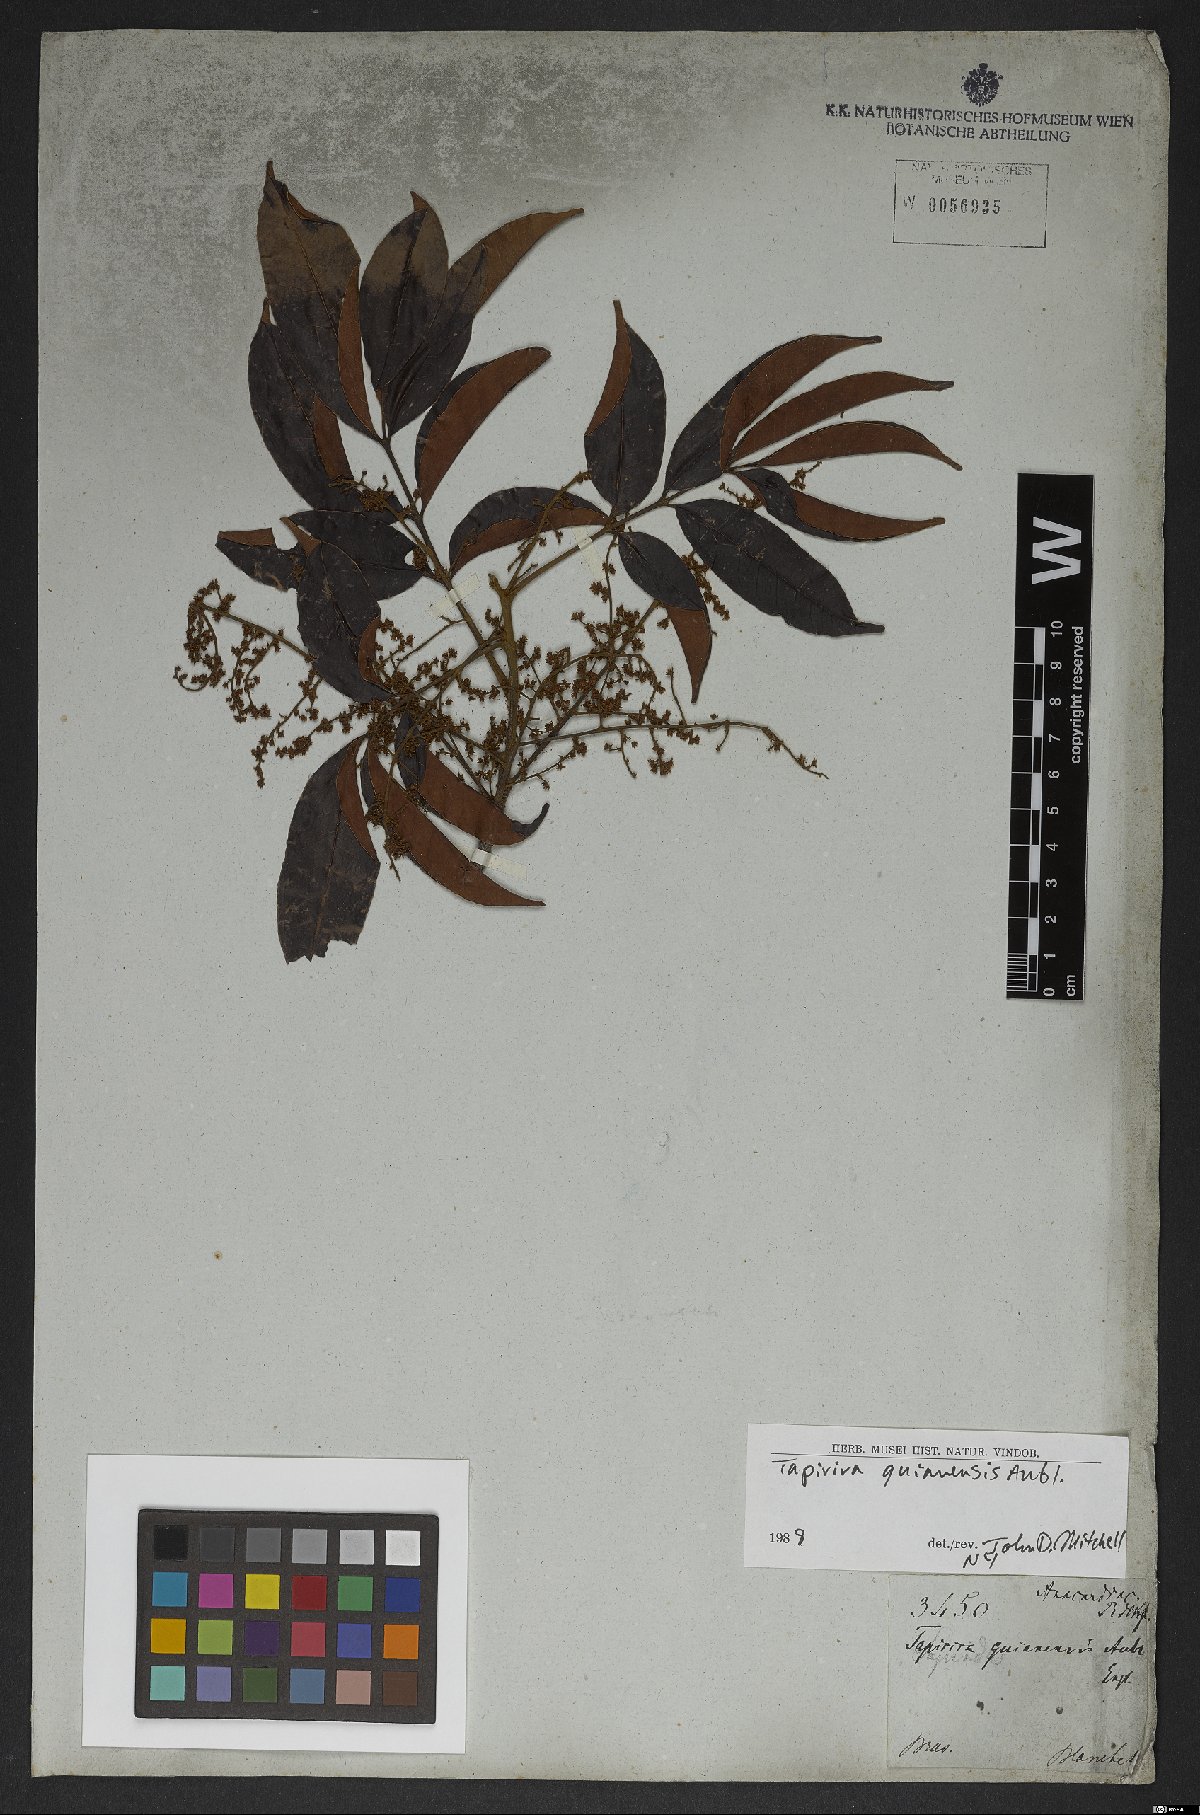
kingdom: Plantae
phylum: Tracheophyta
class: Magnoliopsida
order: Sapindales
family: Anacardiaceae
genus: Tapirira
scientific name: Tapirira guianensis
